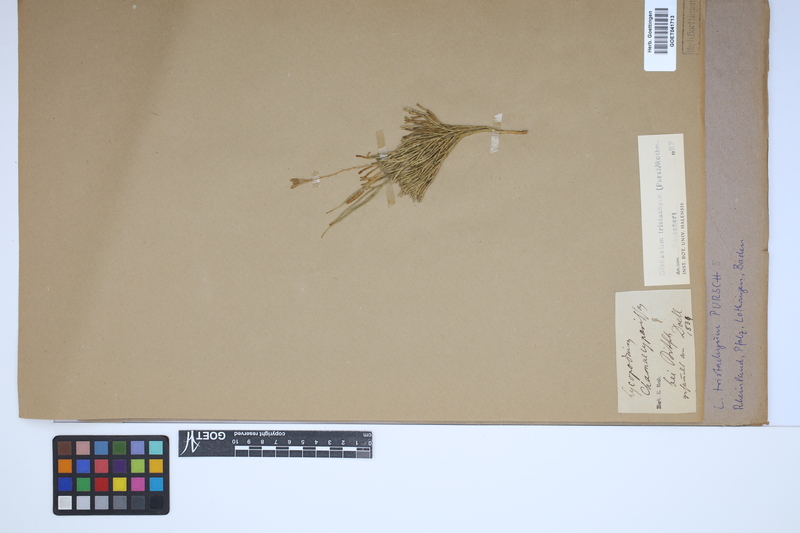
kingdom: Plantae
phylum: Tracheophyta
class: Lycopodiopsida
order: Lycopodiales
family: Lycopodiaceae
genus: Diphasiastrum
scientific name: Diphasiastrum tristachyum
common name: Blue ground-cedar
